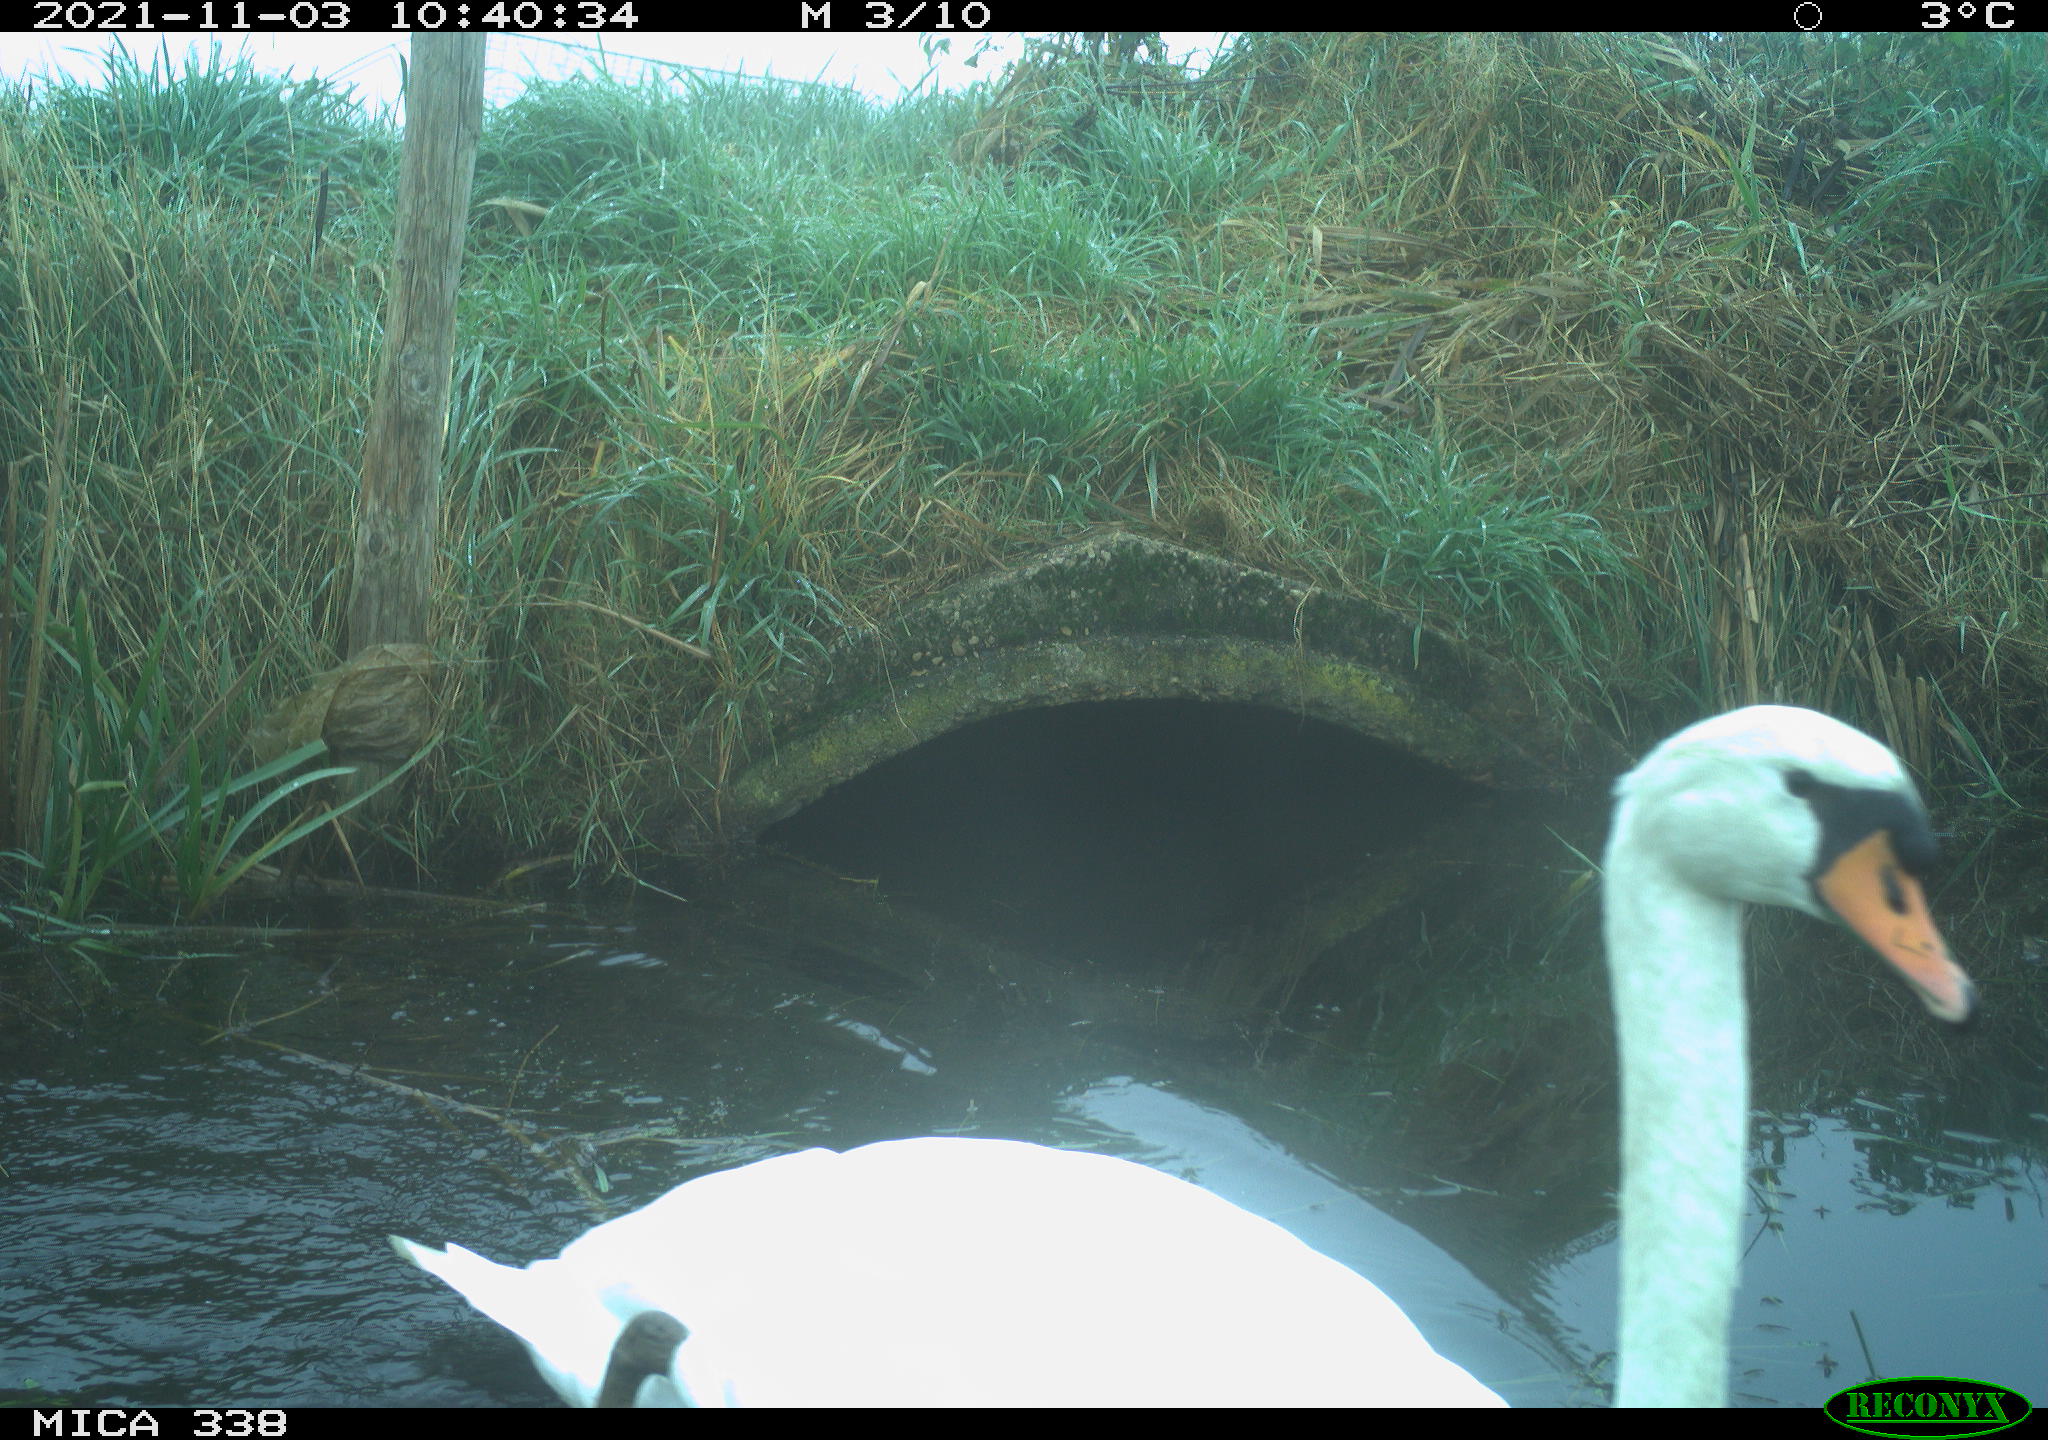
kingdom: Animalia
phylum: Chordata
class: Aves
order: Anseriformes
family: Anatidae
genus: Cygnus
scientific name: Cygnus olor
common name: Mute swan
